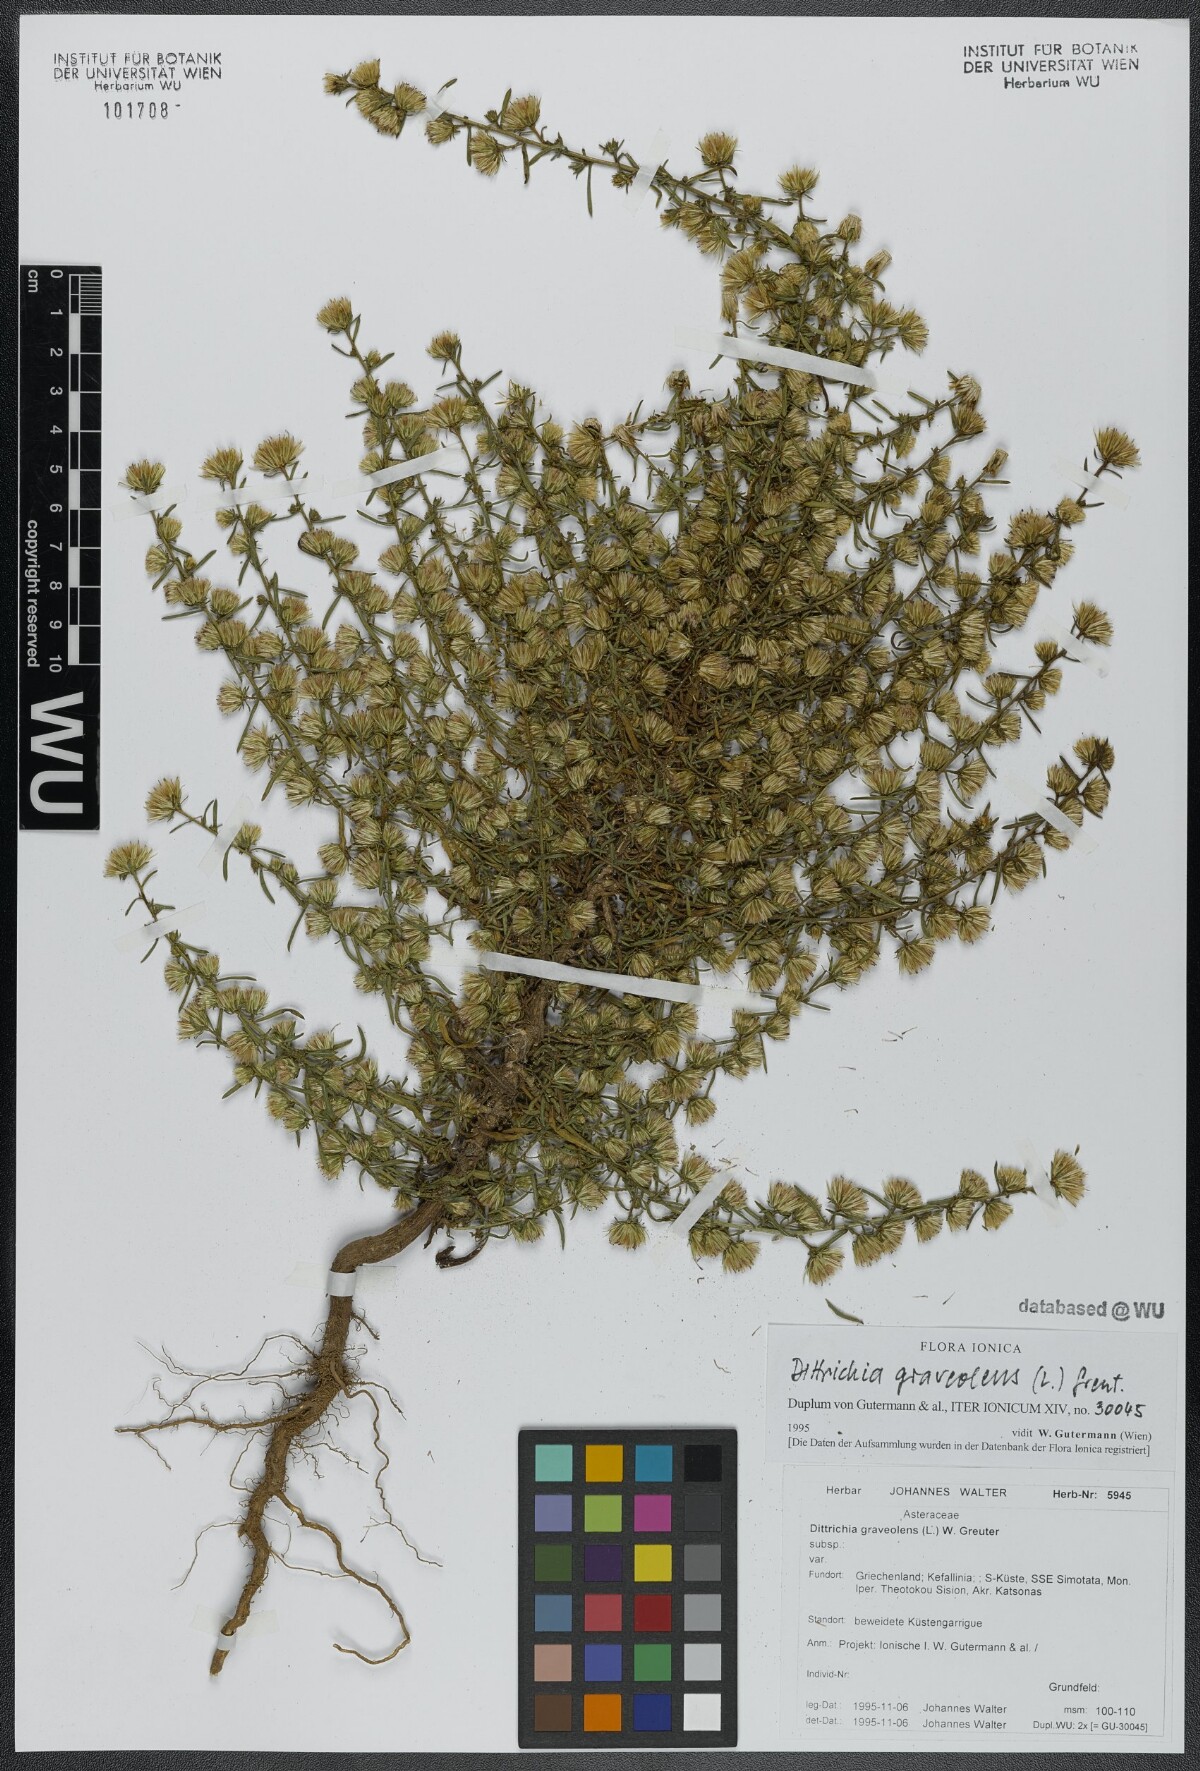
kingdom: Plantae
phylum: Tracheophyta
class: Magnoliopsida
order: Asterales
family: Asteraceae
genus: Dittrichia
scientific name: Dittrichia graveolens
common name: Stinking fleabane
